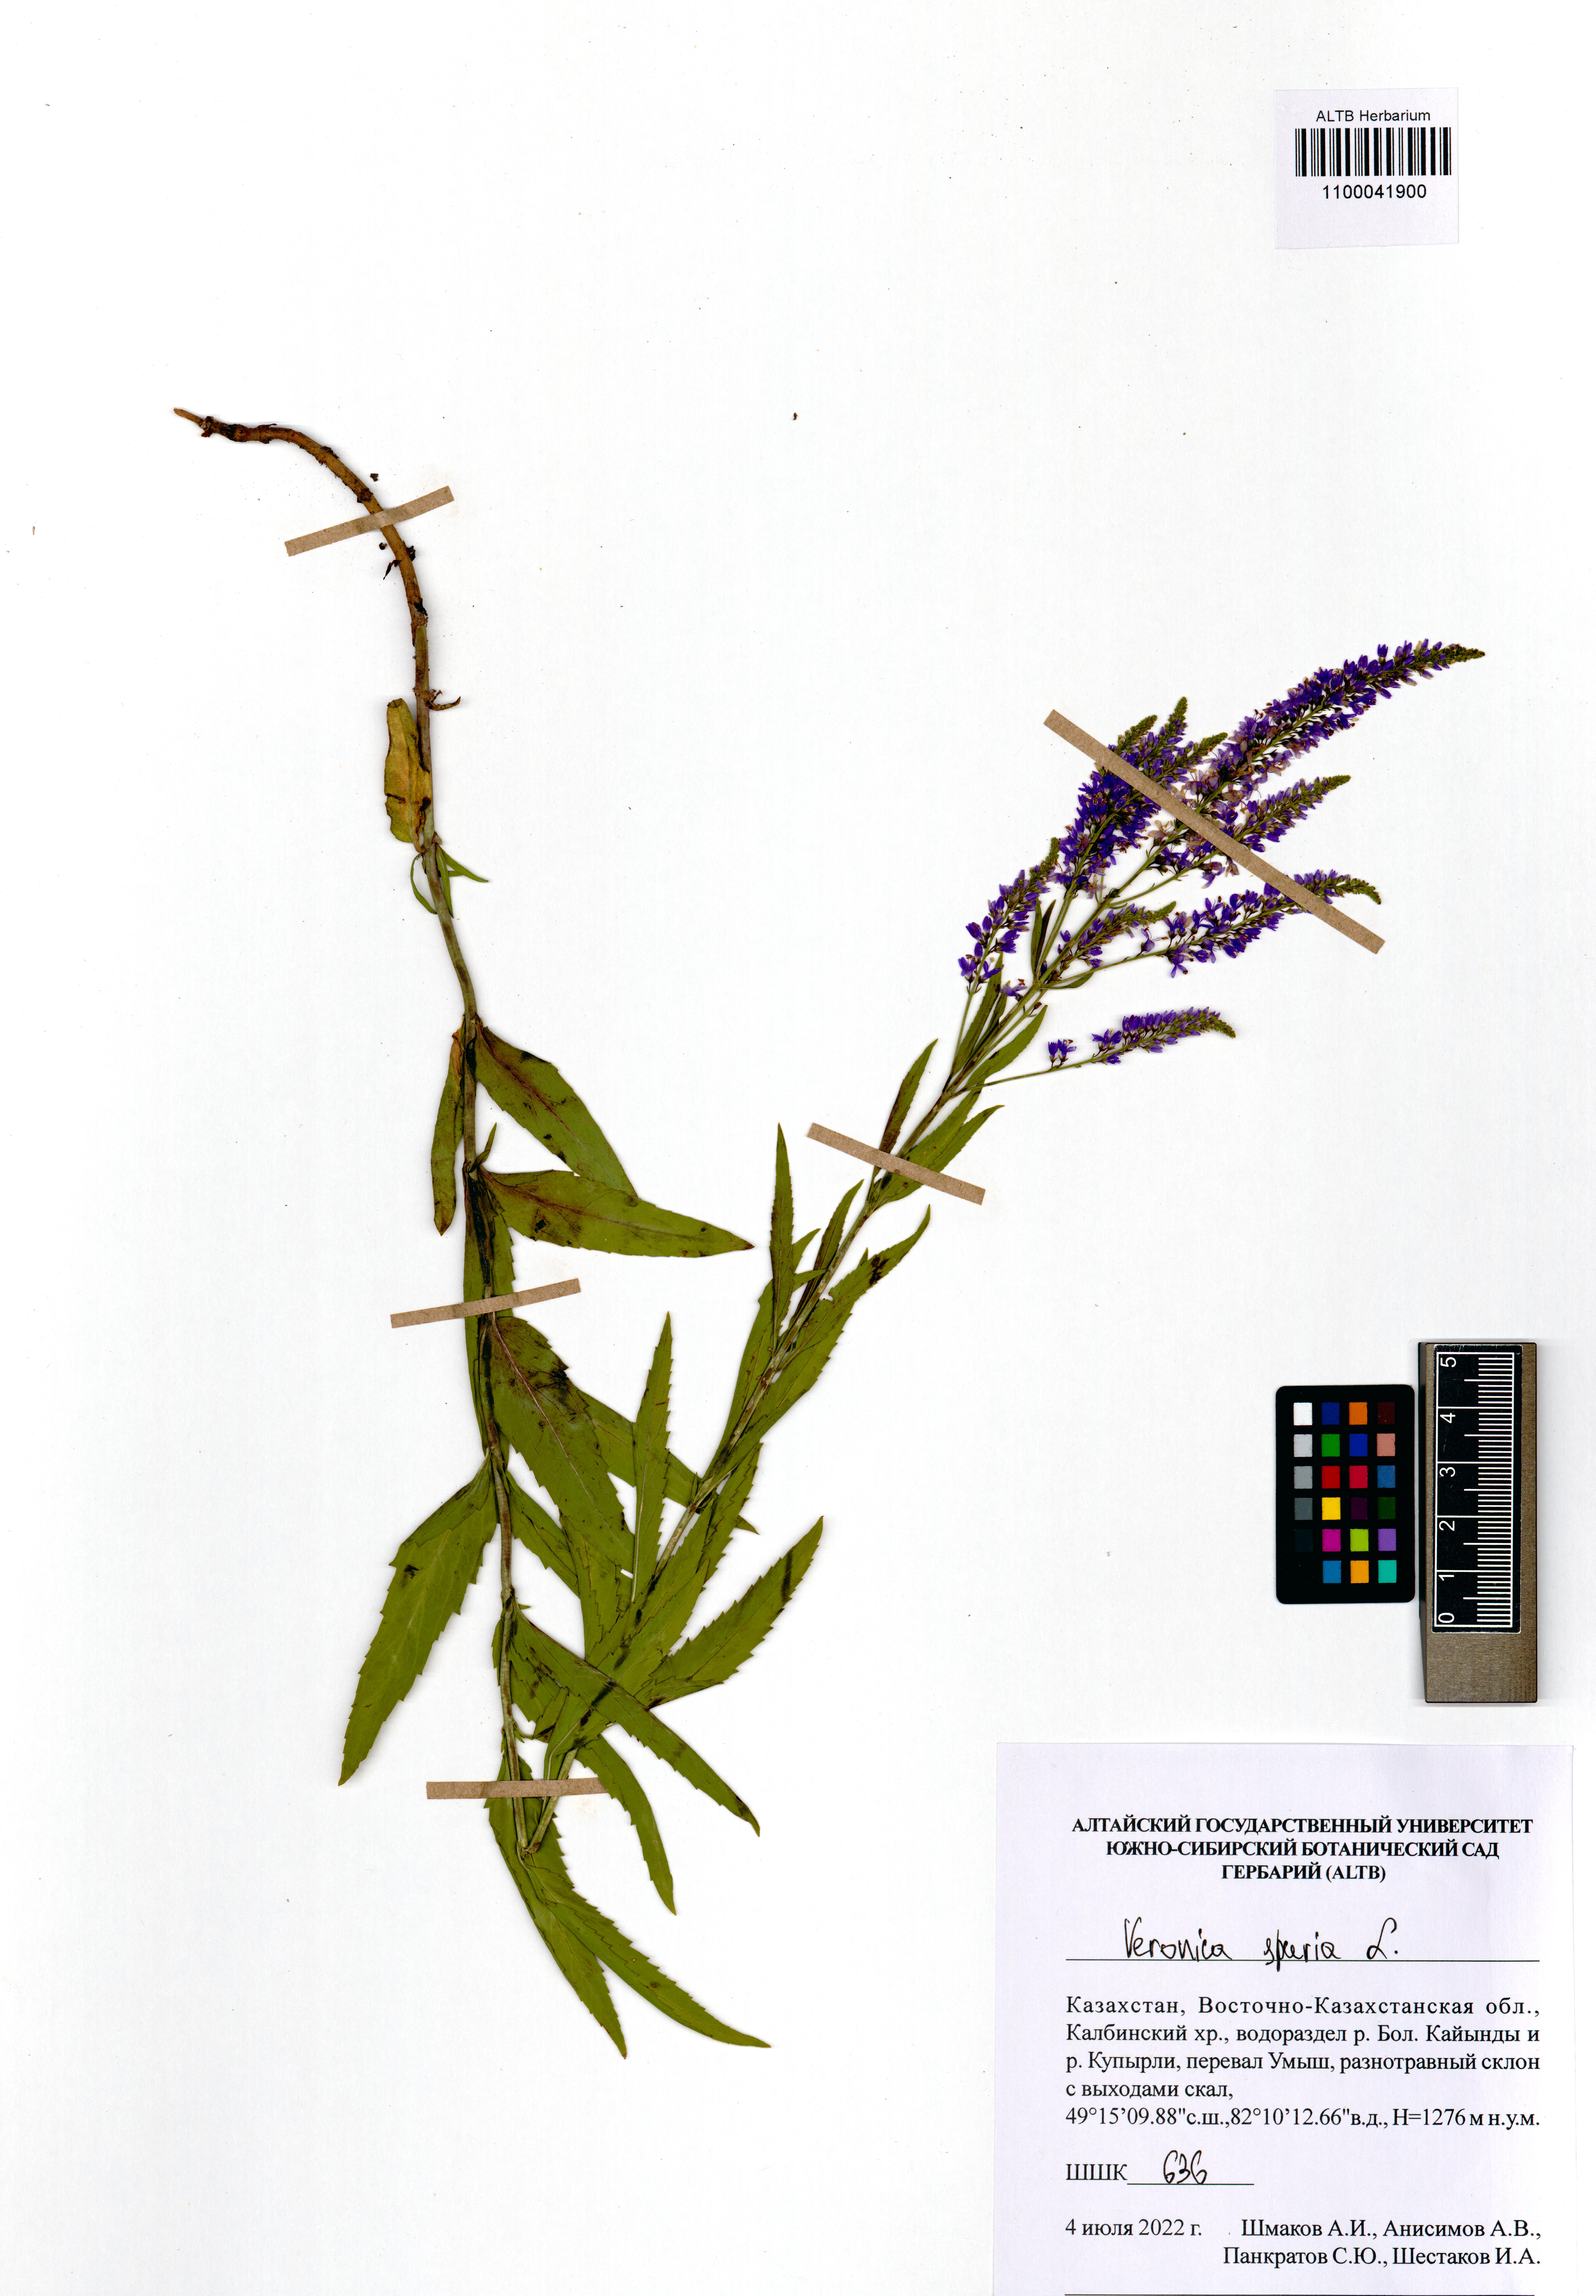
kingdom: Plantae
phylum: Tracheophyta
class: Magnoliopsida
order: Lamiales
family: Plantaginaceae
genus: Veronica
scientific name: Veronica spuria
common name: Bastard speedwell
